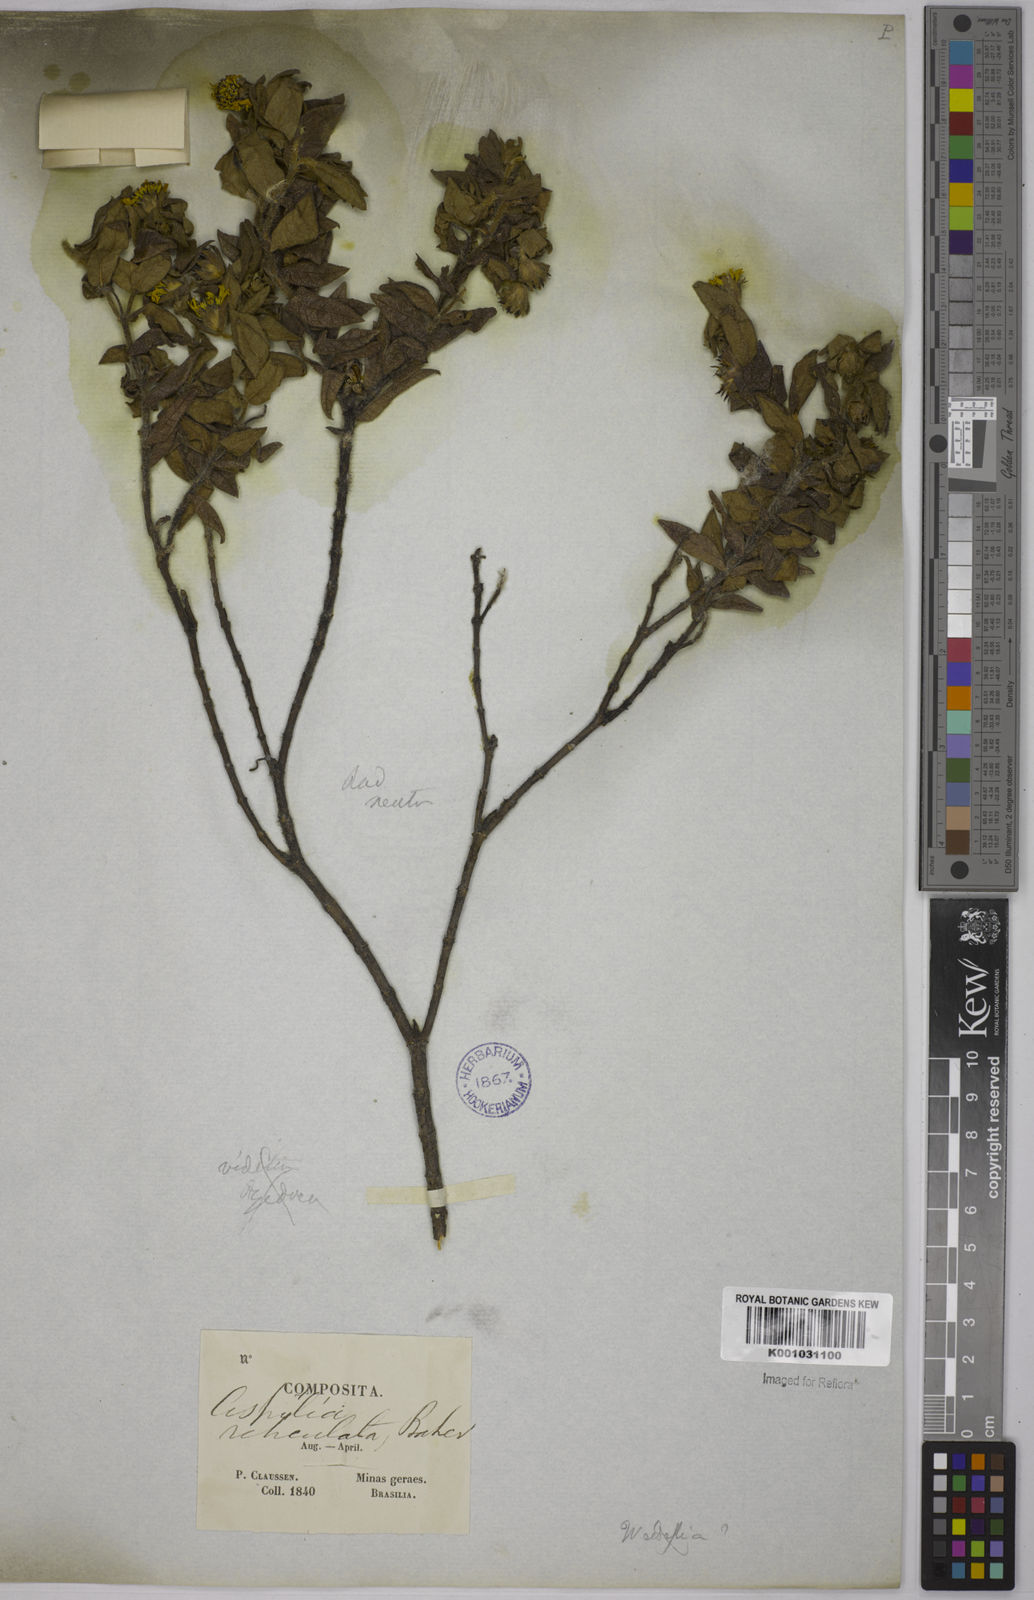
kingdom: Plantae
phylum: Tracheophyta
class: Magnoliopsida
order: Asterales
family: Asteraceae
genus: Wedelia
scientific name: Wedelia frioana
